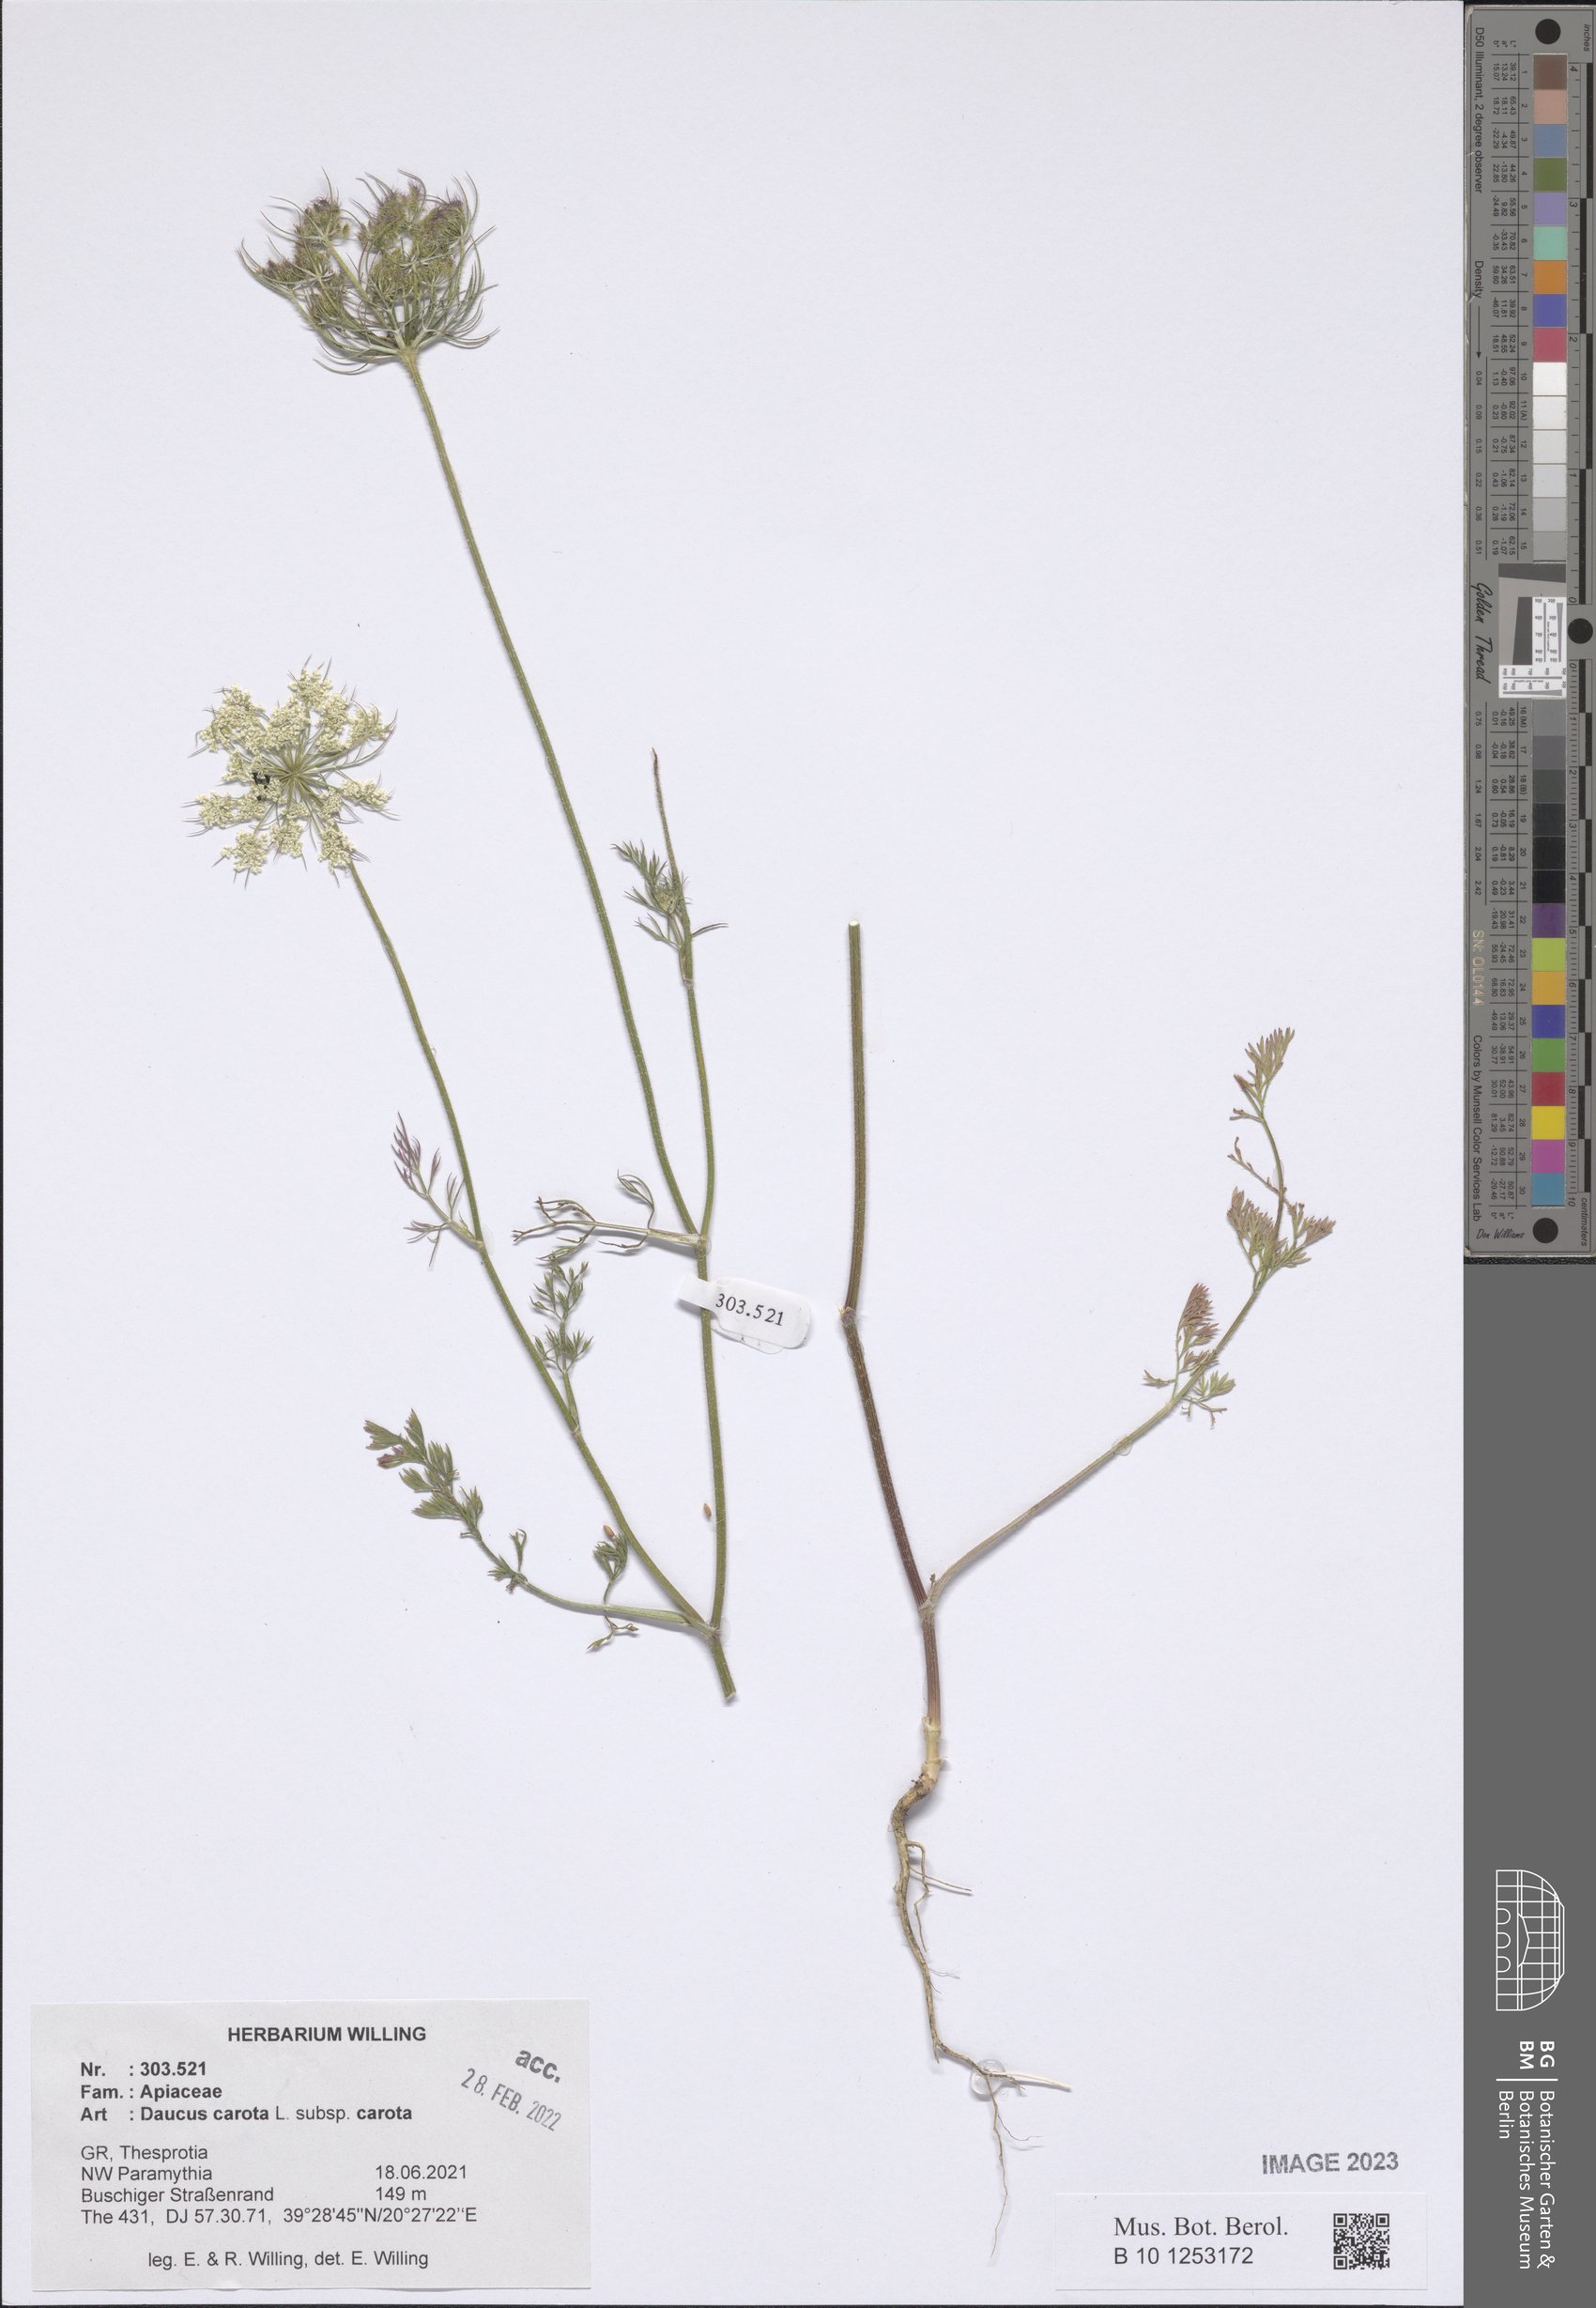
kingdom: Plantae
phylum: Tracheophyta
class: Magnoliopsida
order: Apiales
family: Apiaceae
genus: Daucus
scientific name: Daucus carota
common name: Wild carrot
